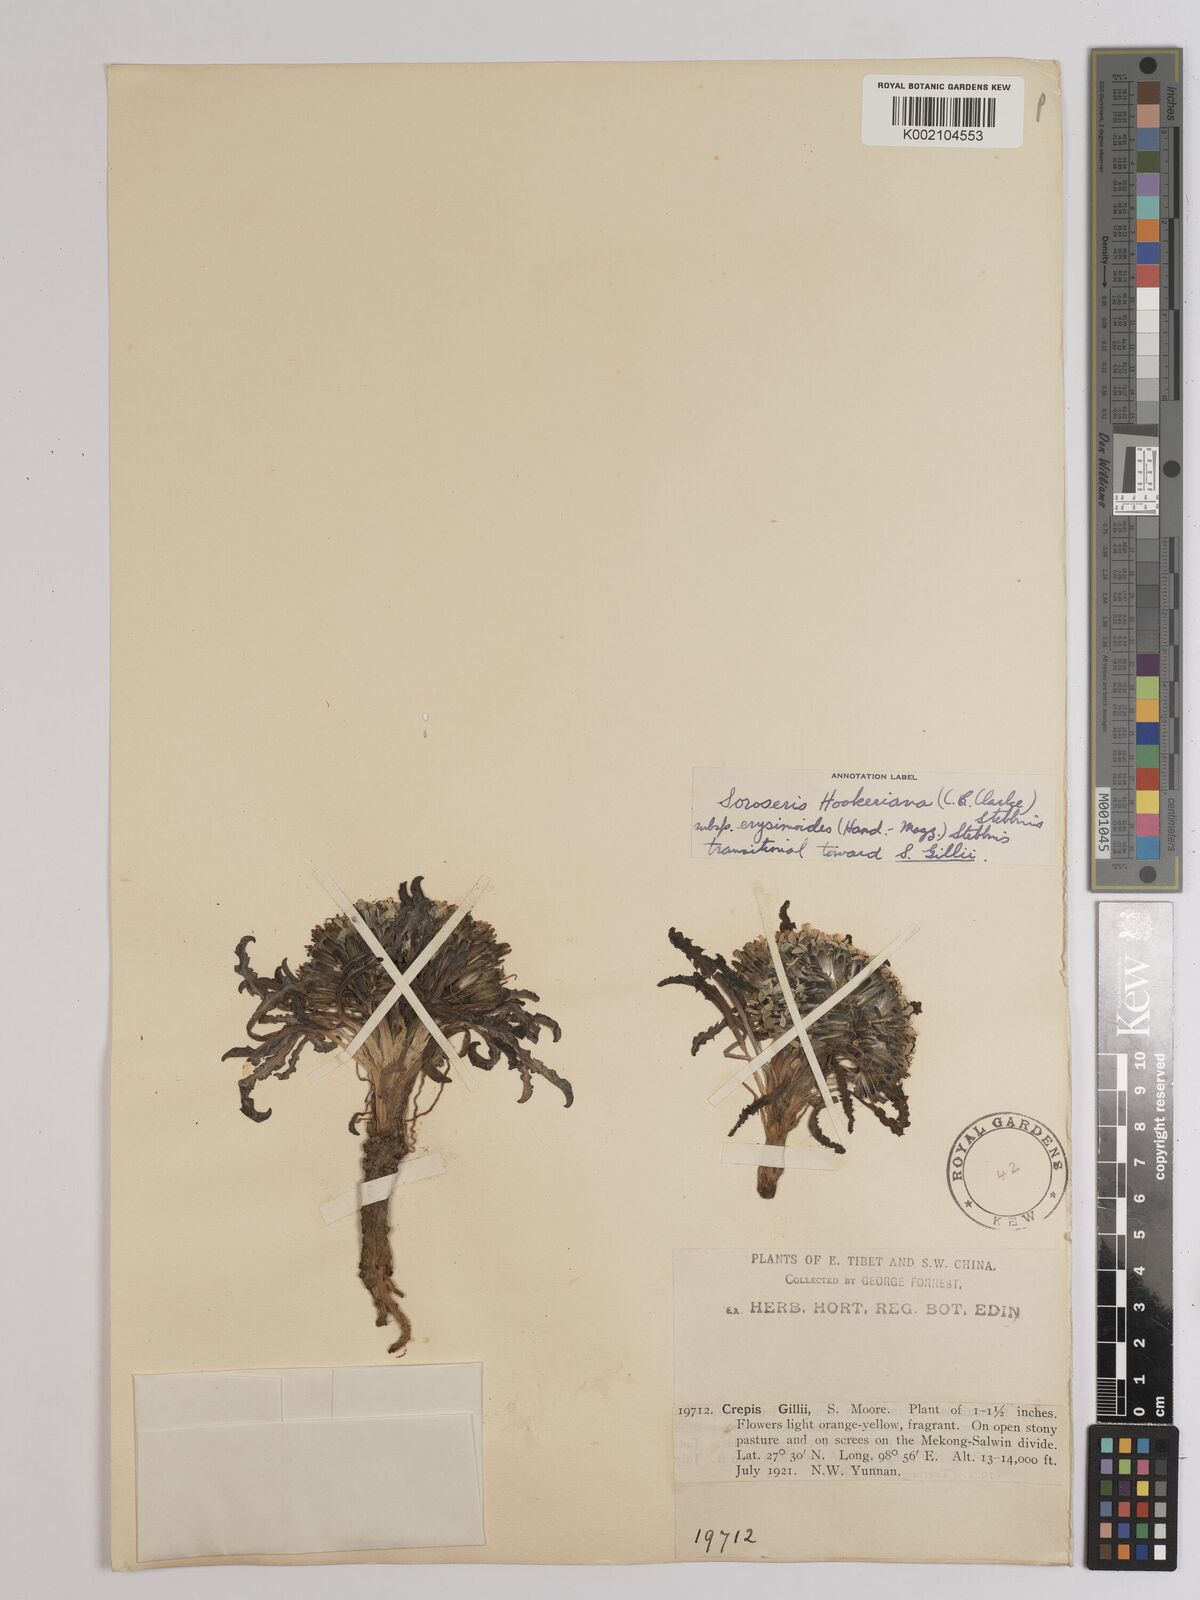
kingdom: Plantae
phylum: Tracheophyta
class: Magnoliopsida
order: Asterales
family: Asteraceae
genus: Soroseris
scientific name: Soroseris hookeriana
